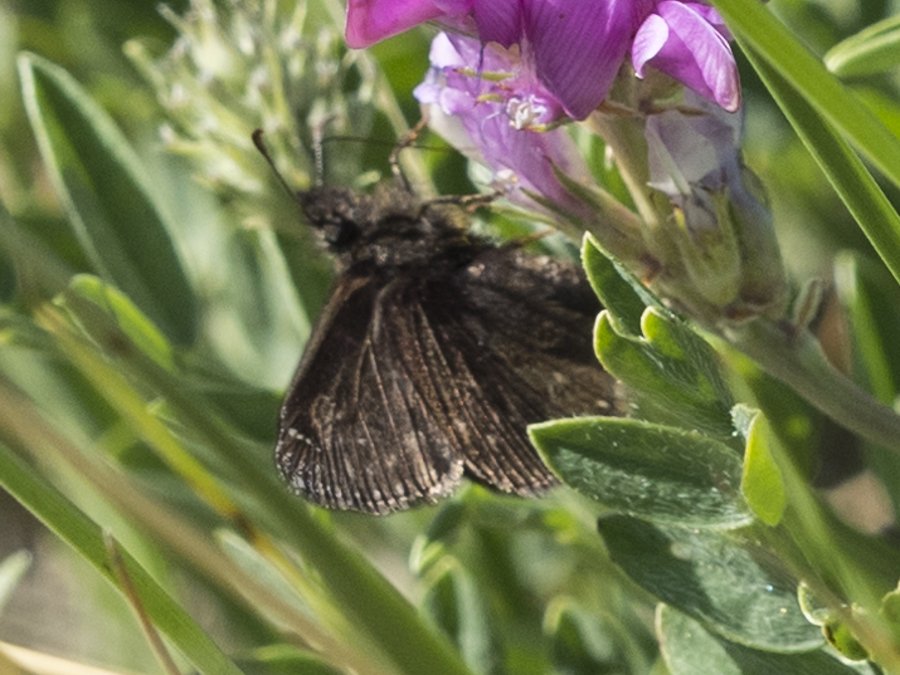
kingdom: Animalia
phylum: Arthropoda
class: Insecta
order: Lepidoptera
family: Hesperiidae
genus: Gesta
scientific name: Gesta
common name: Persius Duskywing
